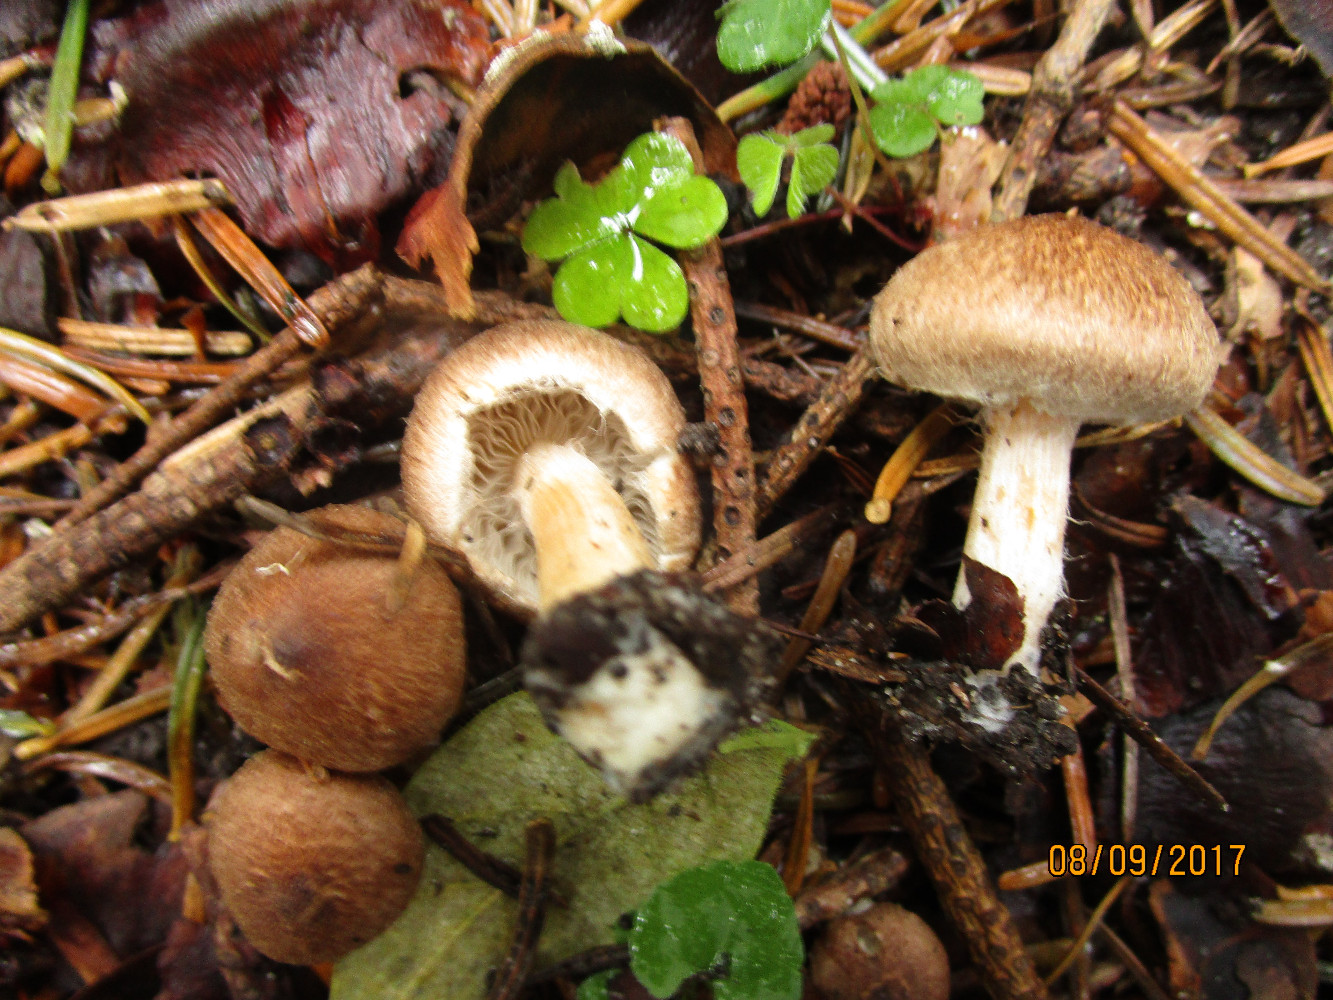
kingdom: Fungi
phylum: Basidiomycota
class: Agaricomycetes
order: Agaricales
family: Inocybaceae
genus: Inocybe
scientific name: Inocybe
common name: trævlhat
